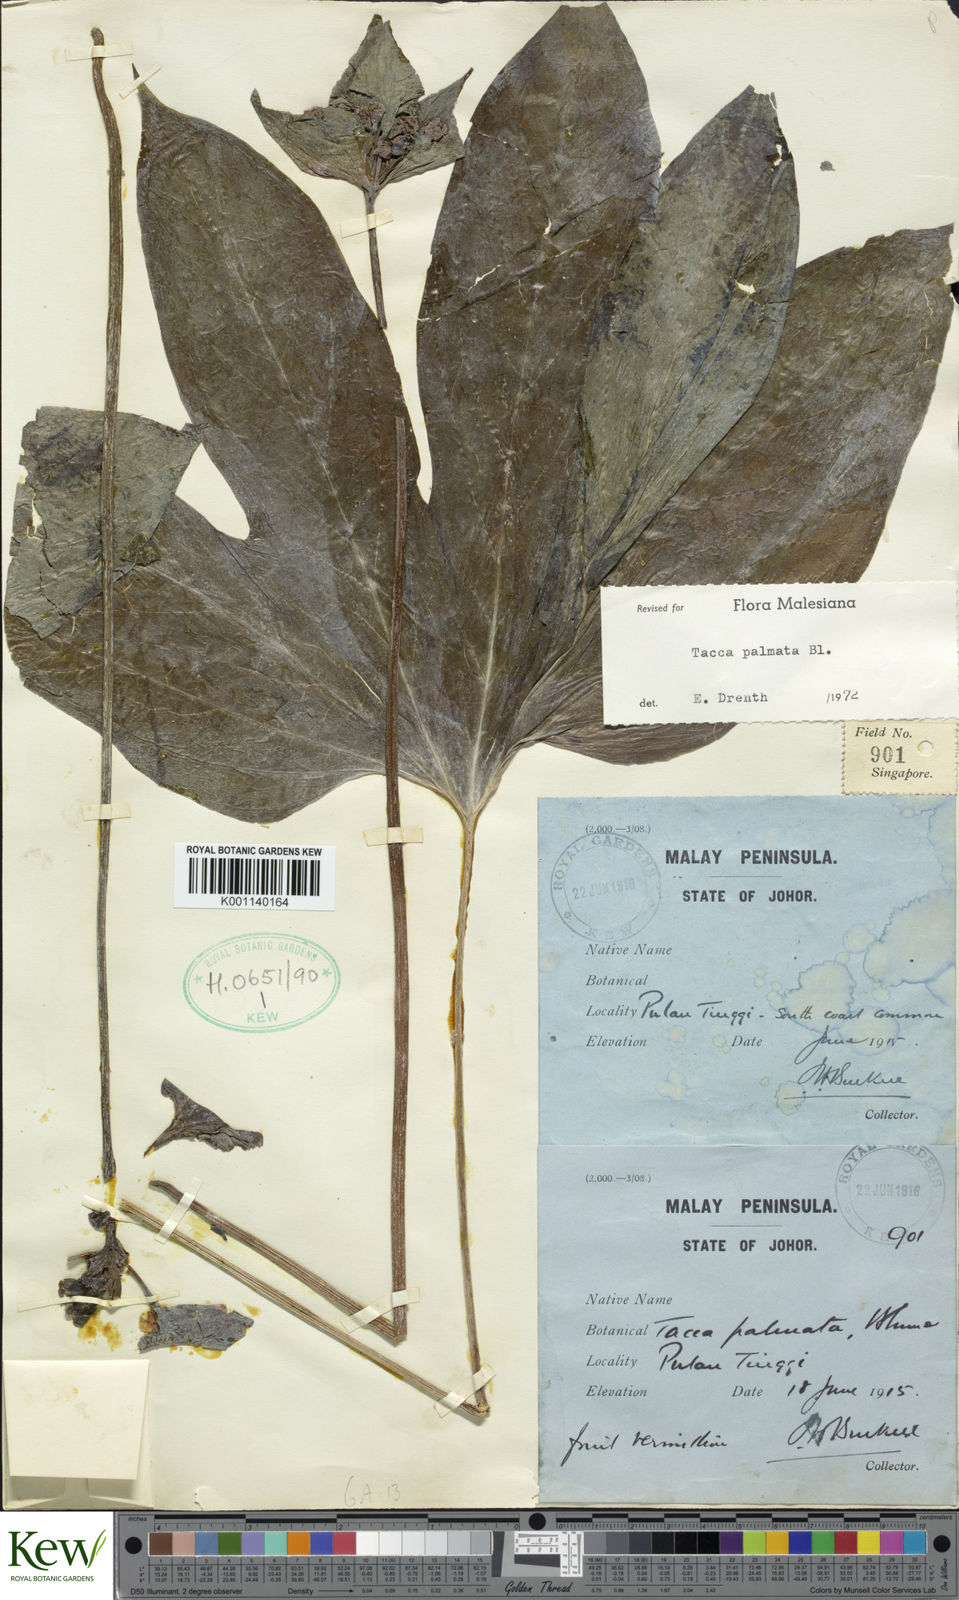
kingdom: Plantae
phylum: Tracheophyta
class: Liliopsida
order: Dioscoreales
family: Dioscoreaceae
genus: Tacca
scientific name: Tacca palmata
